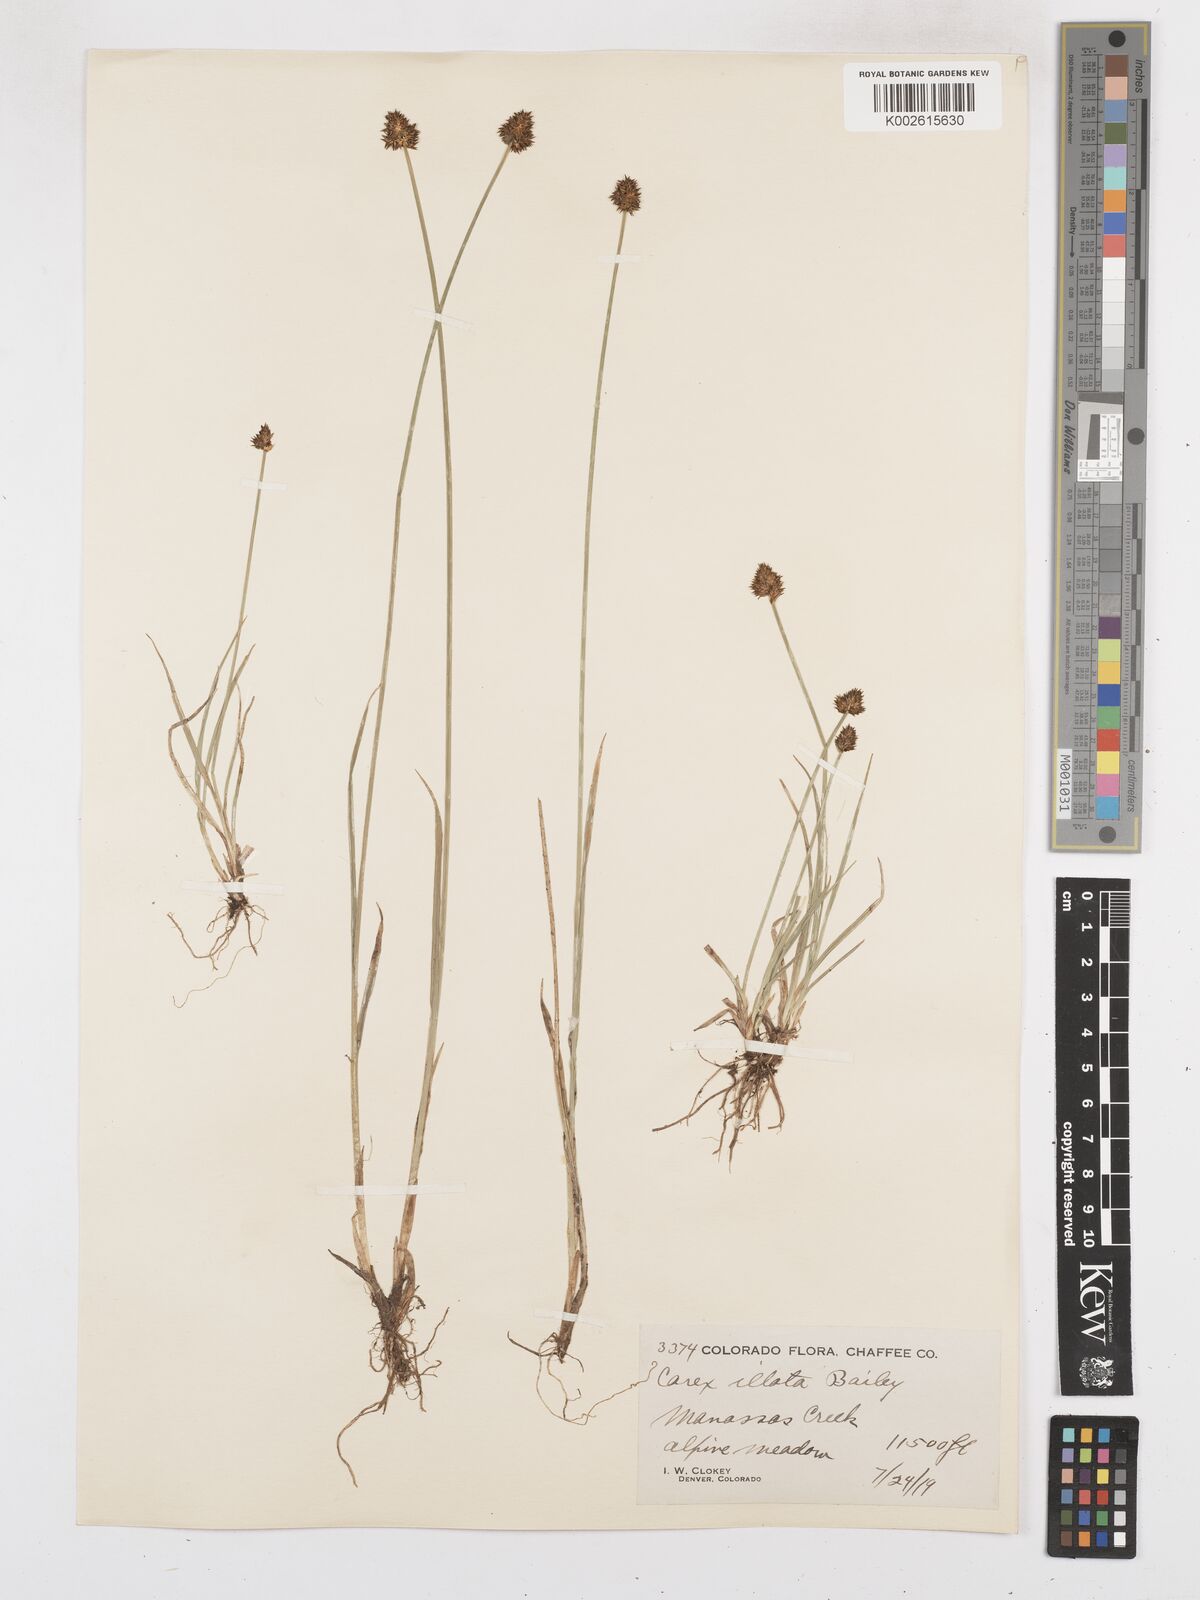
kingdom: Plantae
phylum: Tracheophyta
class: Liliopsida
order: Poales
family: Cyperaceae
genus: Carex
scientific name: Carex illota
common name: Sheep sedge
